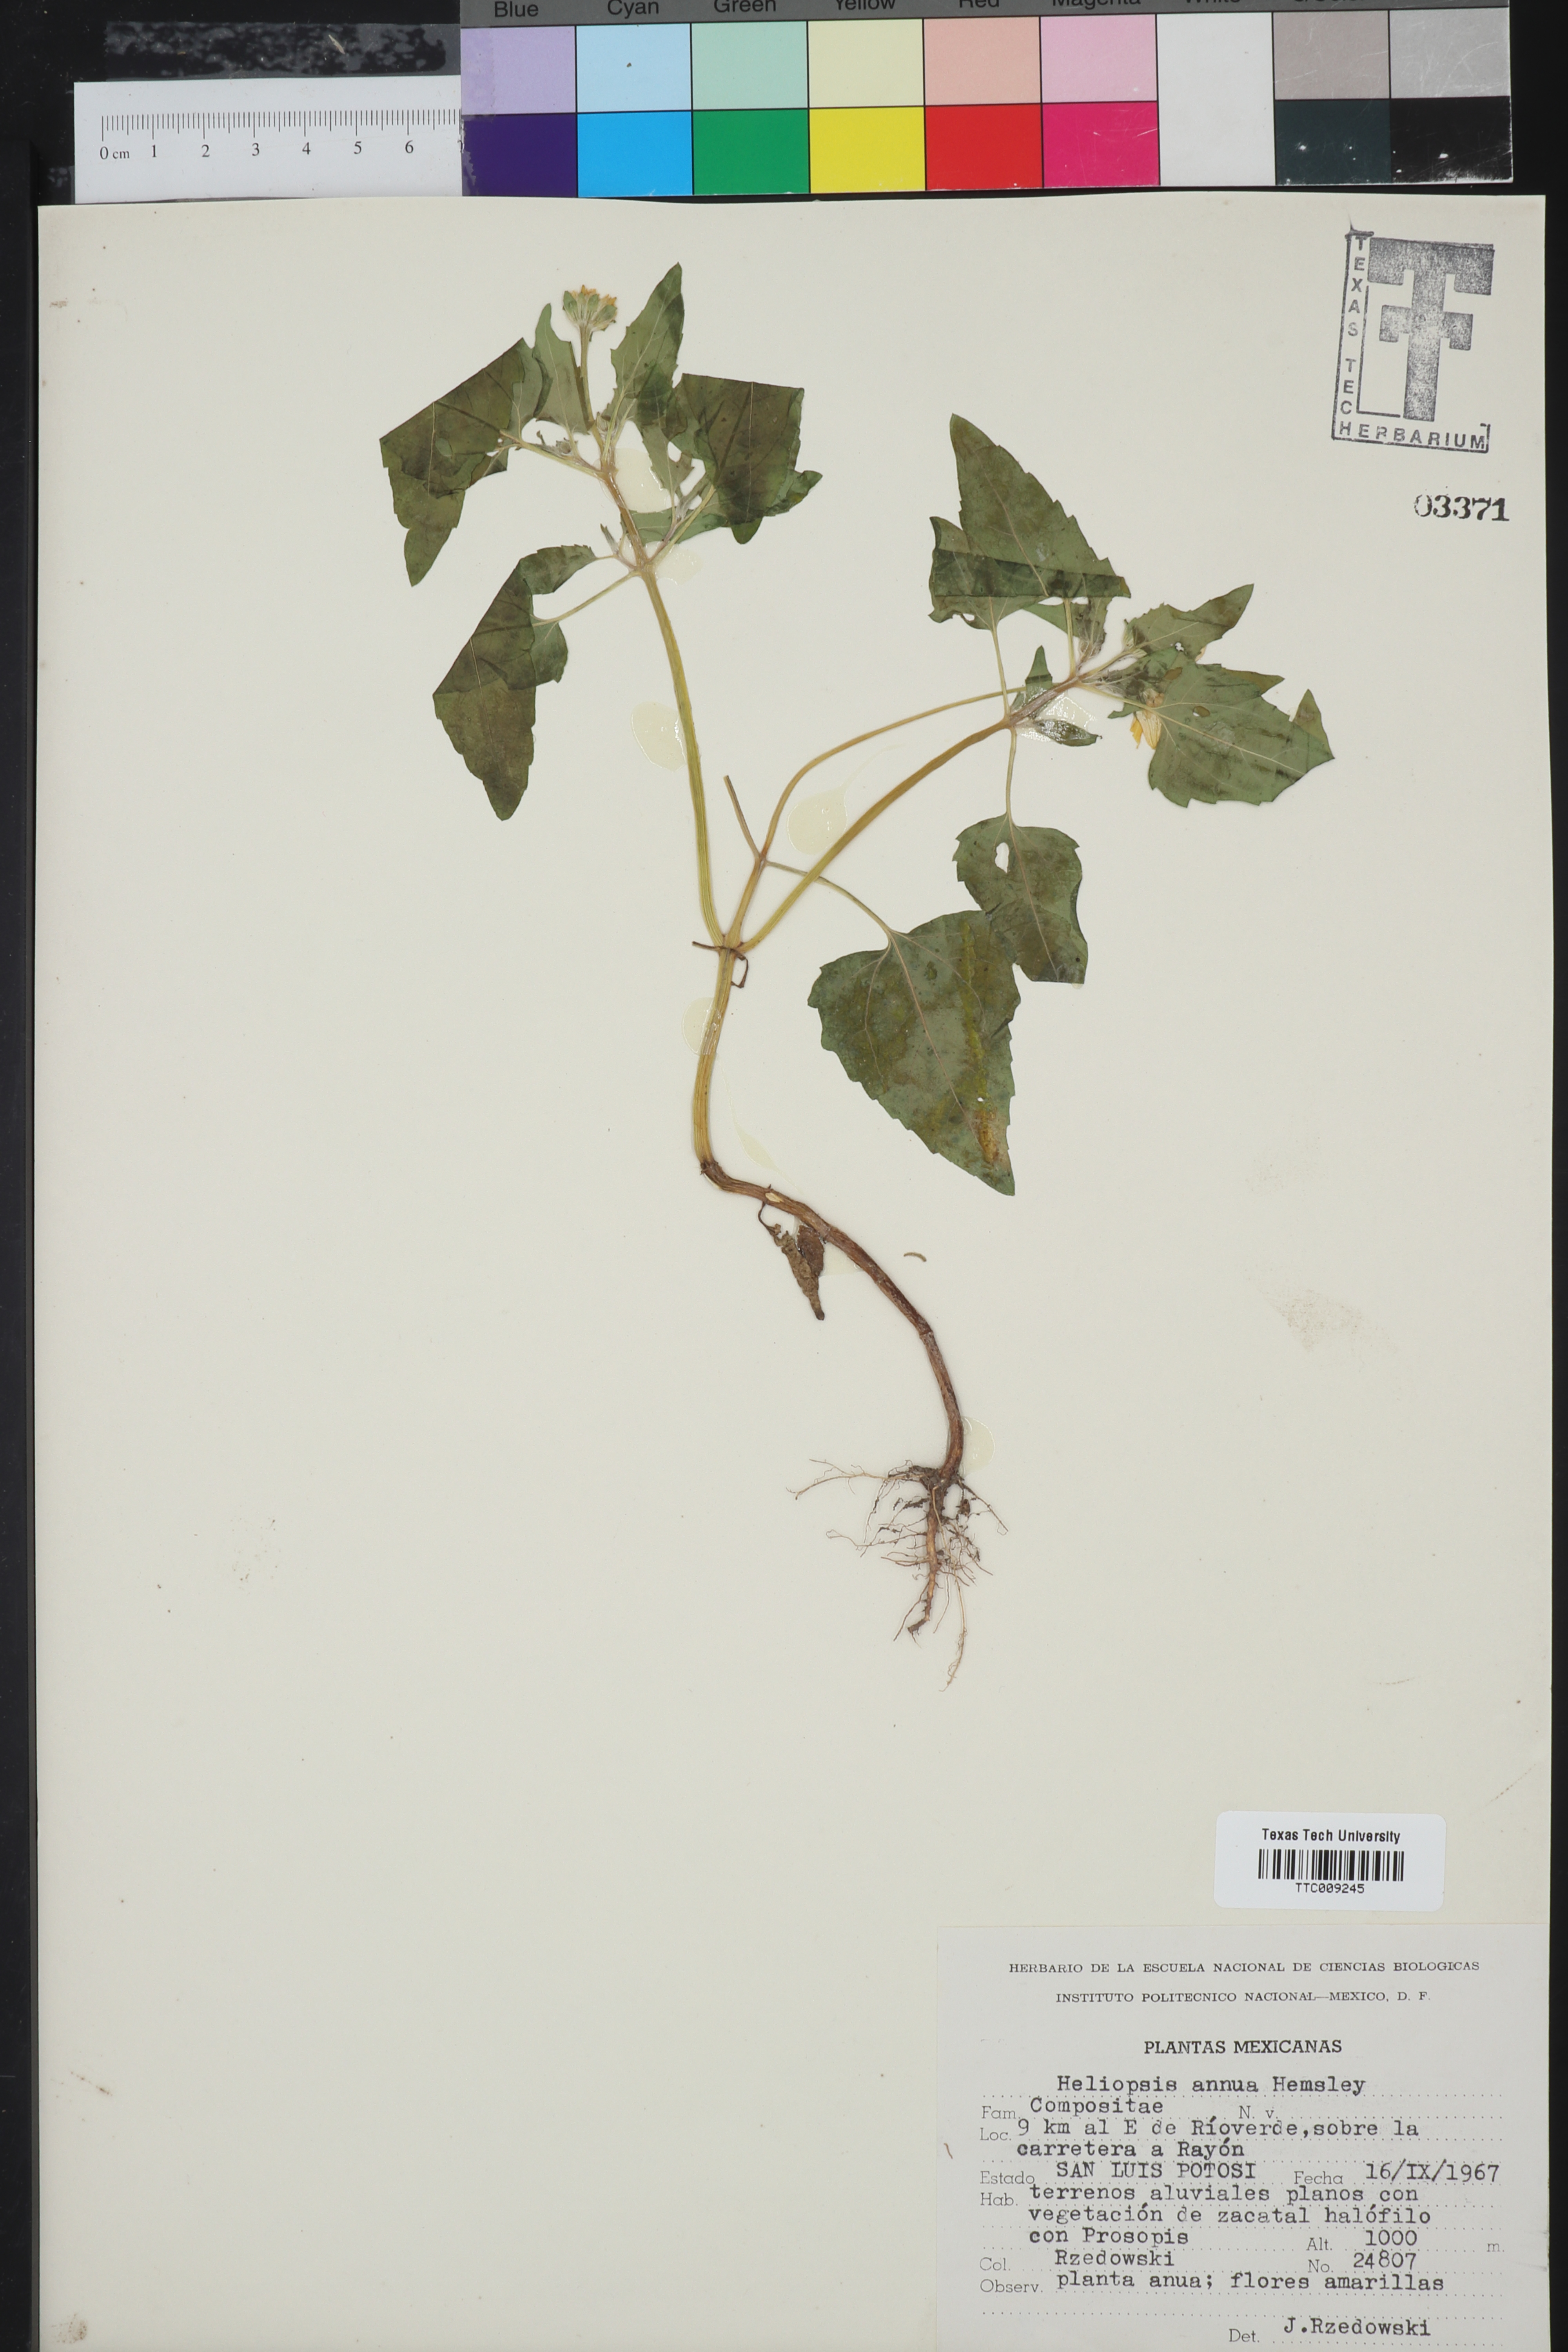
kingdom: Plantae
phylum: Tracheophyta
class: Magnoliopsida
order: Asterales
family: Asteraceae
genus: Heliopsis
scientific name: Heliopsis annua
